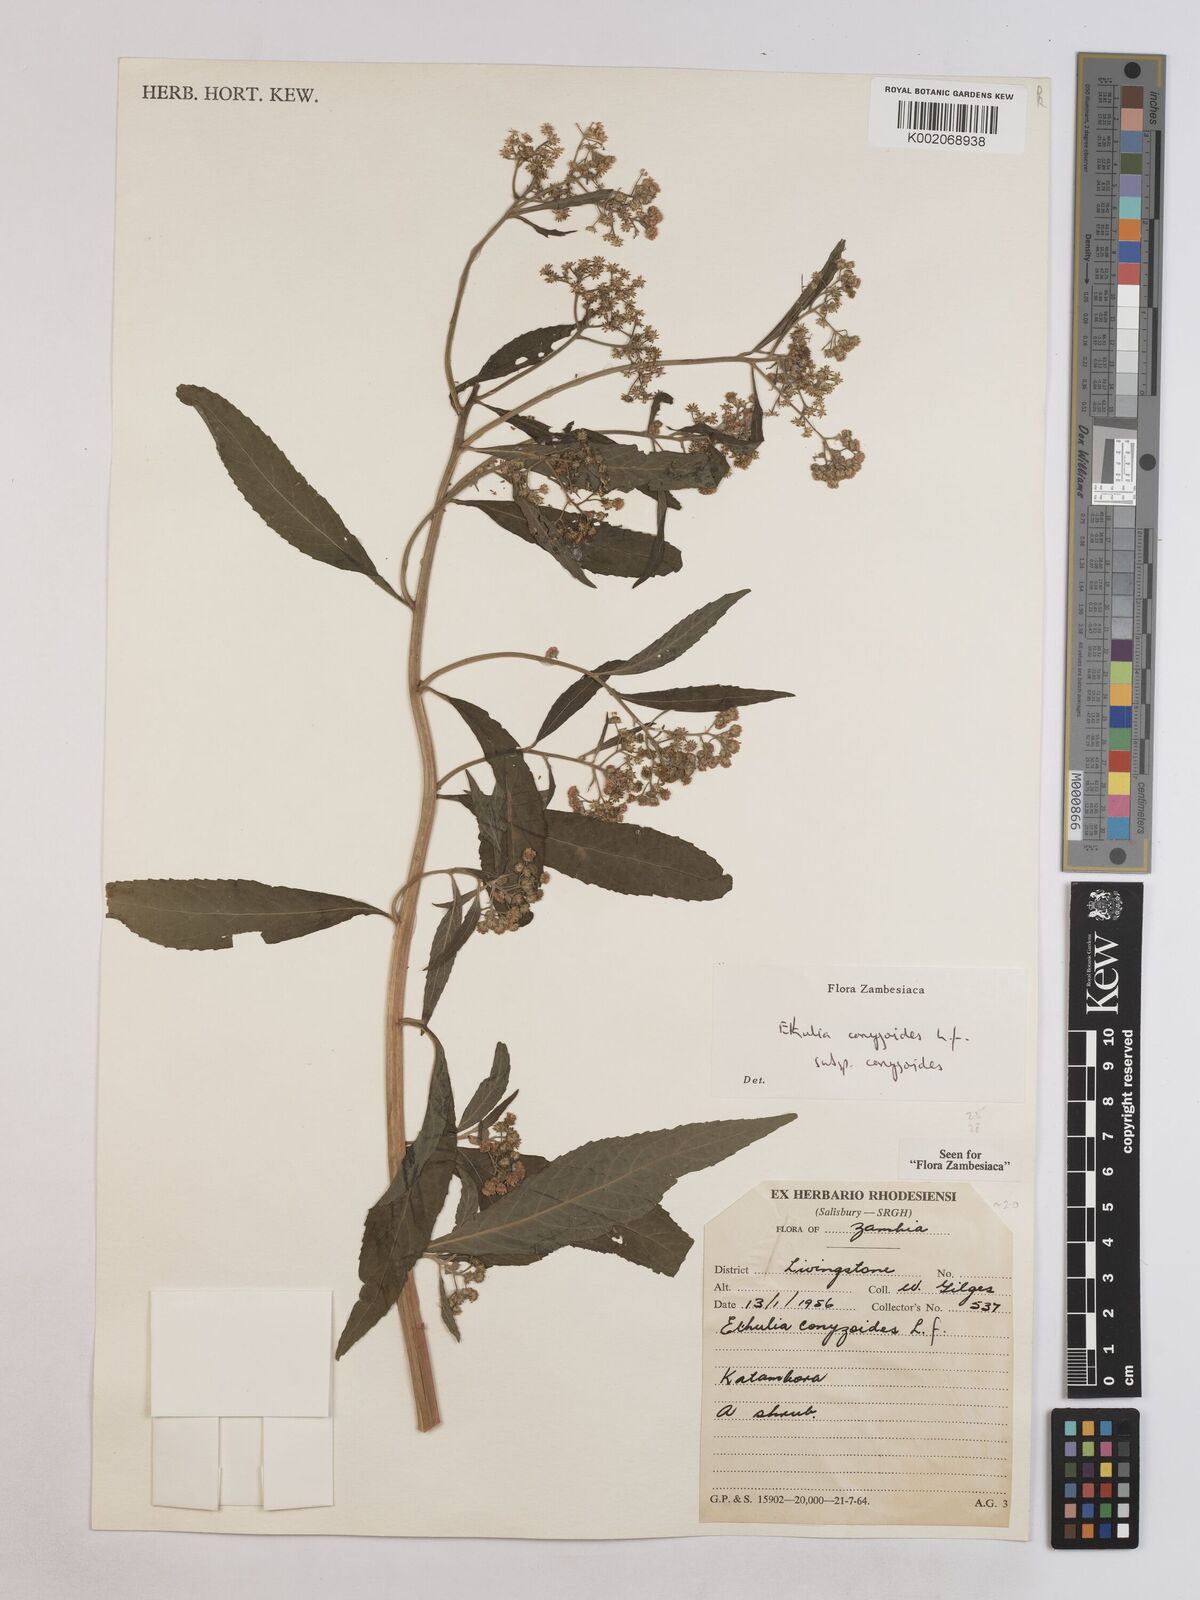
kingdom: Plantae
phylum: Tracheophyta
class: Magnoliopsida
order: Asterales
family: Asteraceae
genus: Ethulia
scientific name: Ethulia conyzoides
